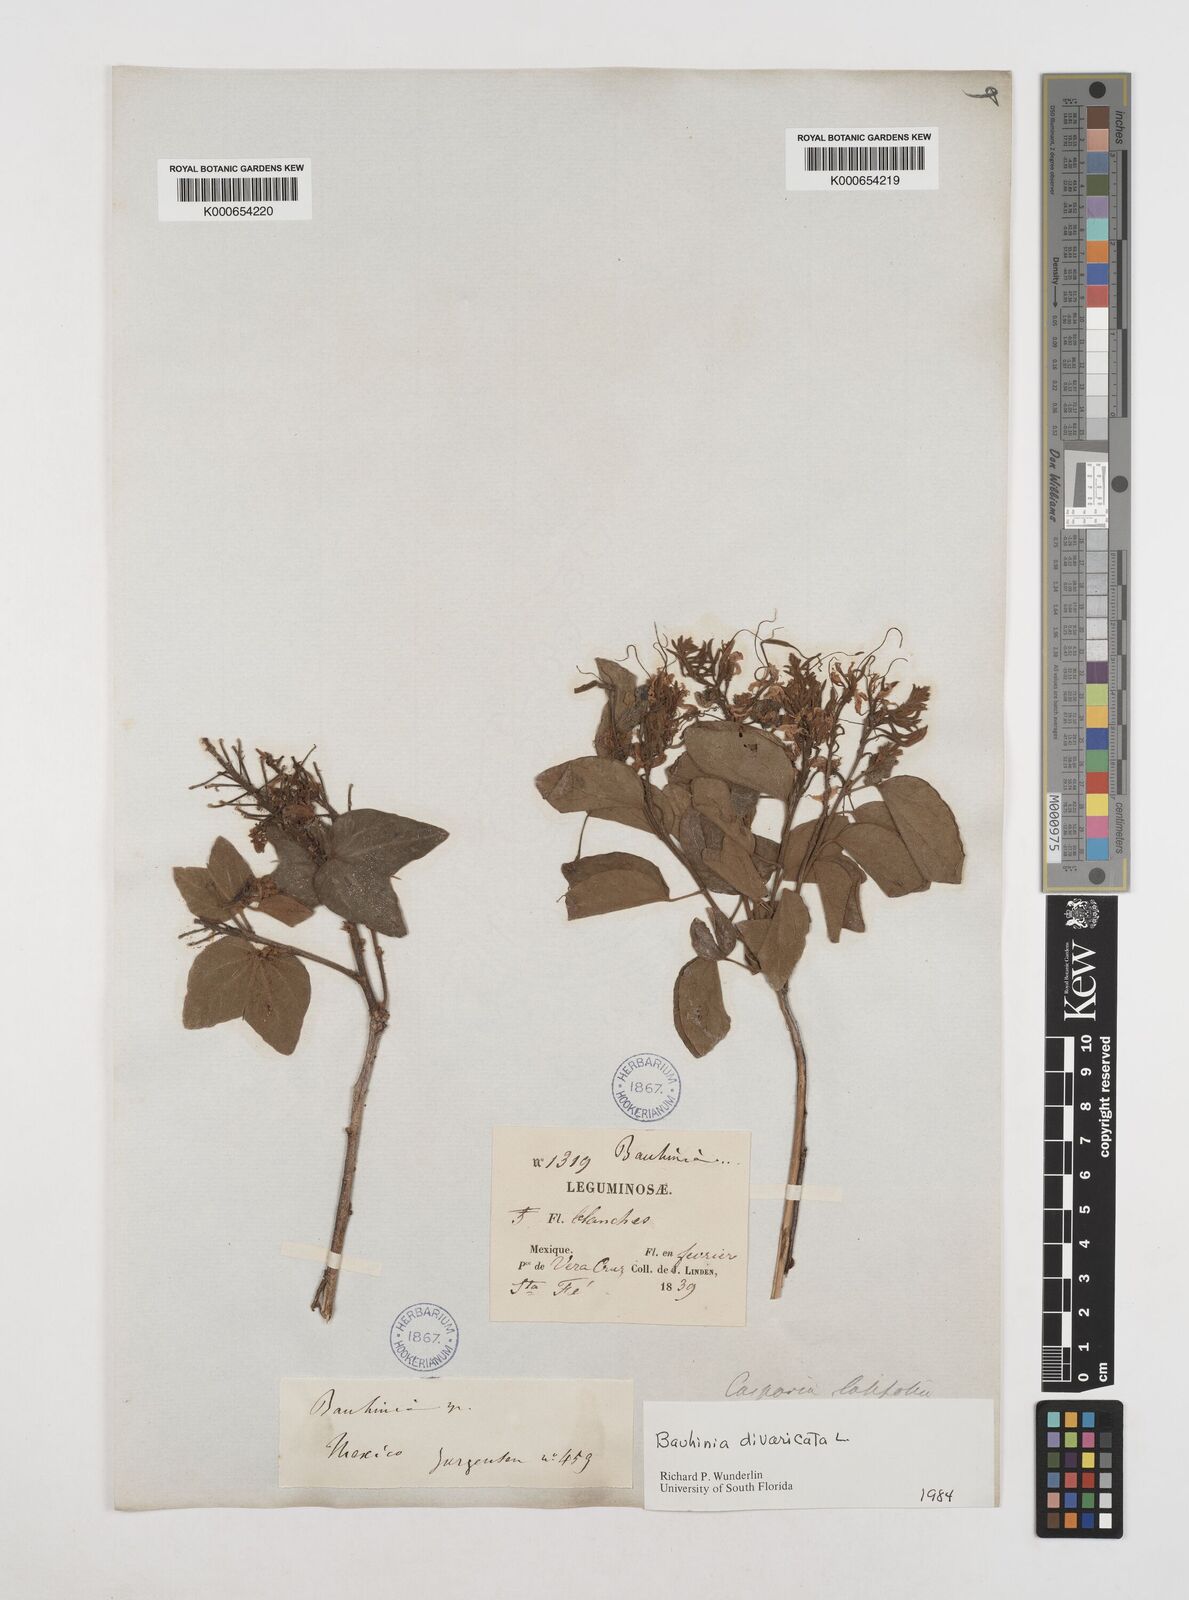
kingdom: Plantae
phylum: Tracheophyta
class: Magnoliopsida
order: Fabales
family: Fabaceae
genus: Bauhinia
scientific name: Bauhinia divaricata
